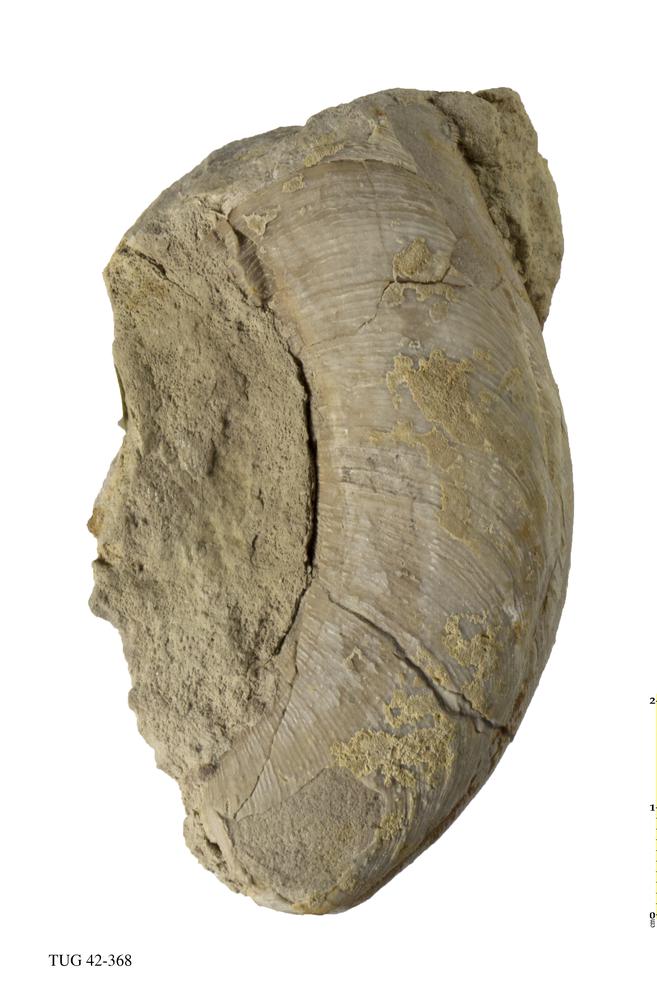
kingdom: Animalia
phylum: Mollusca
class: Cephalopoda
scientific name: Cephalopoda
